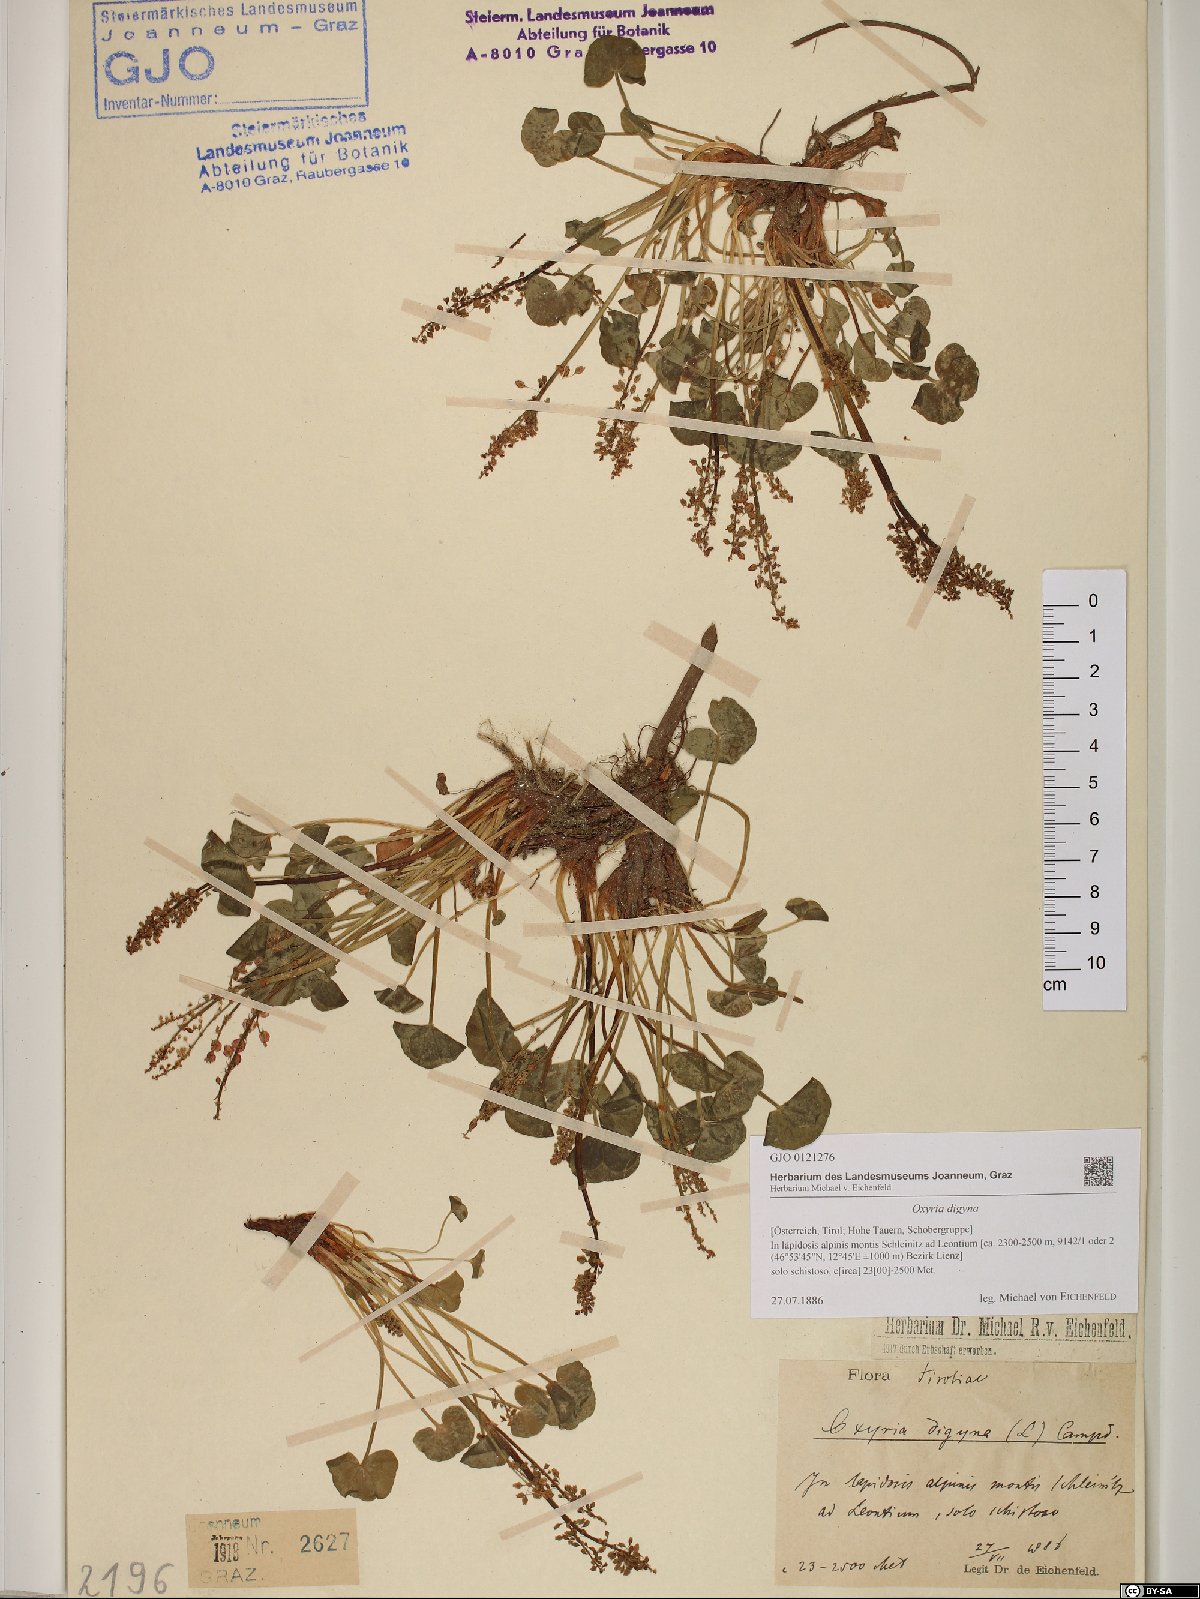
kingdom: Plantae
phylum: Tracheophyta
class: Magnoliopsida
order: Caryophyllales
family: Polygonaceae
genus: Oxyria
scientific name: Oxyria digyna
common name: Alpine mountain-sorrel
